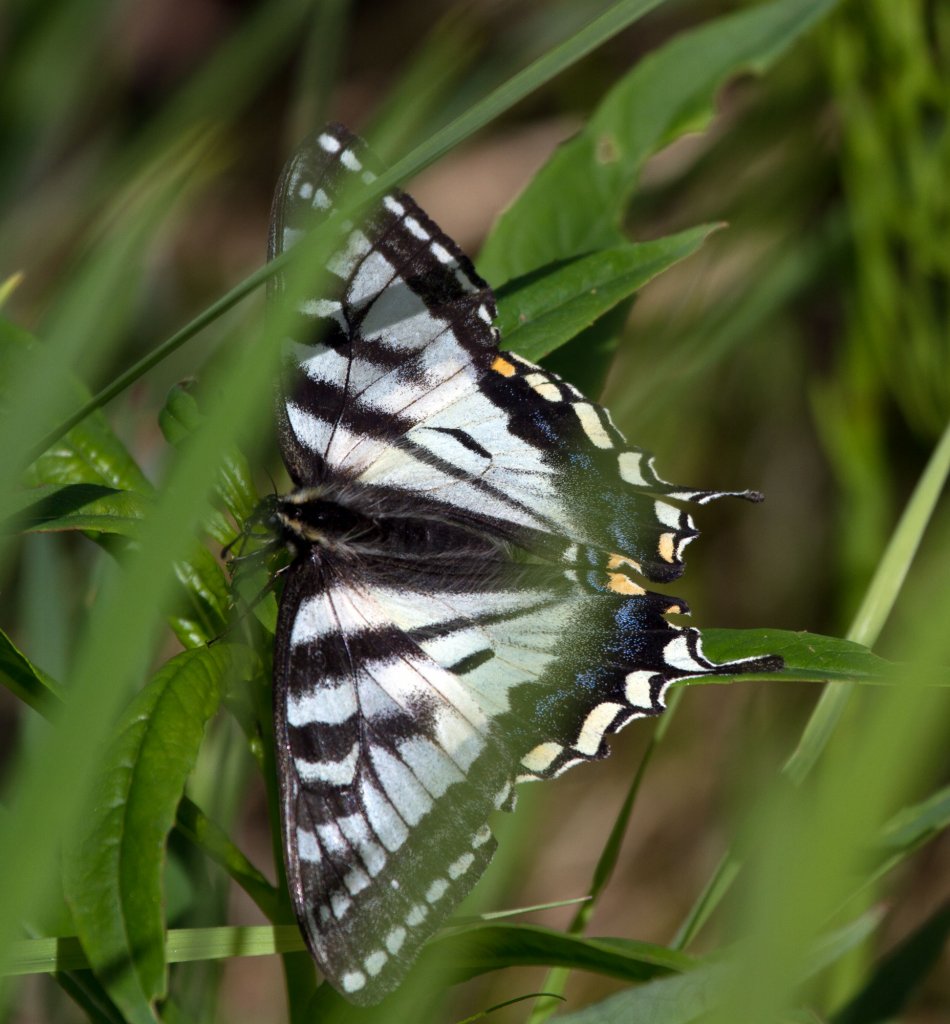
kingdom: Animalia
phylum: Arthropoda
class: Insecta
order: Lepidoptera
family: Papilionidae
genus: Pterourus
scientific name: Pterourus canadensis
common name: Canadian Tiger Swallowtail
